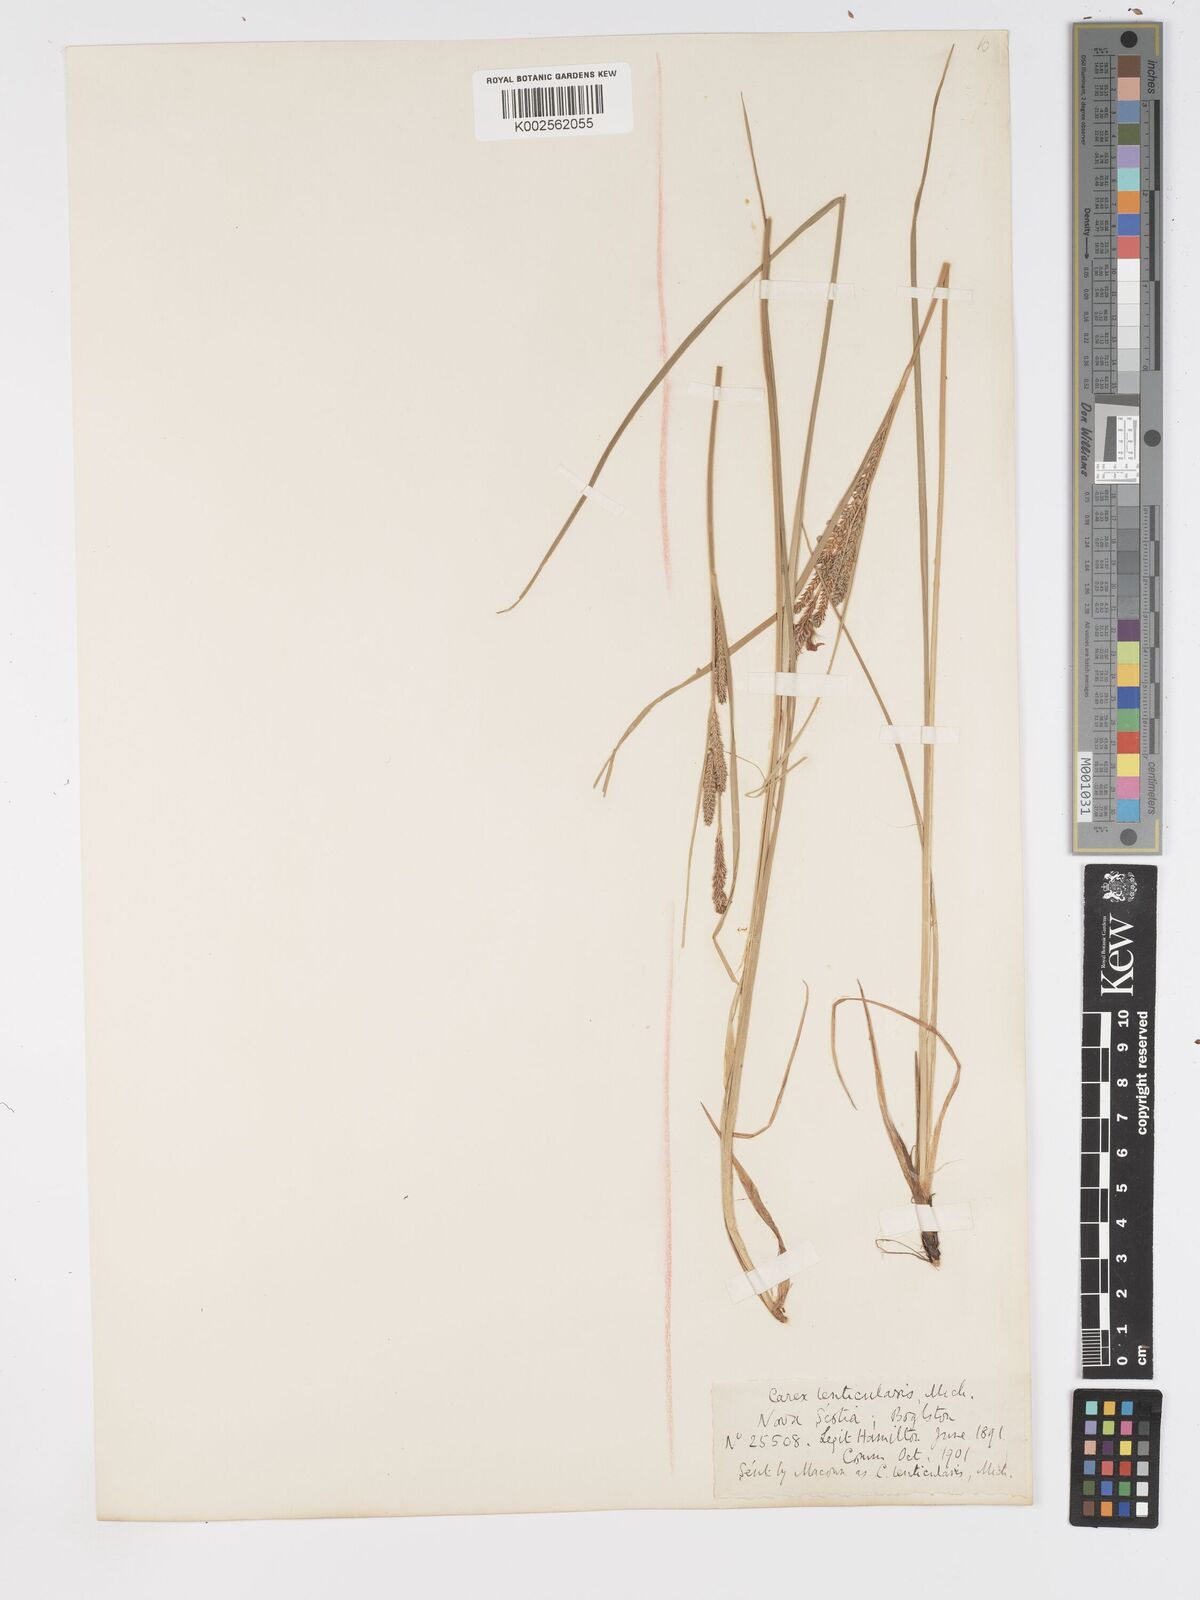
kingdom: Plantae
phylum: Tracheophyta
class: Liliopsida
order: Poales
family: Cyperaceae
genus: Carex
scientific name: Carex lenticularis
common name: Lakeshore sedge
